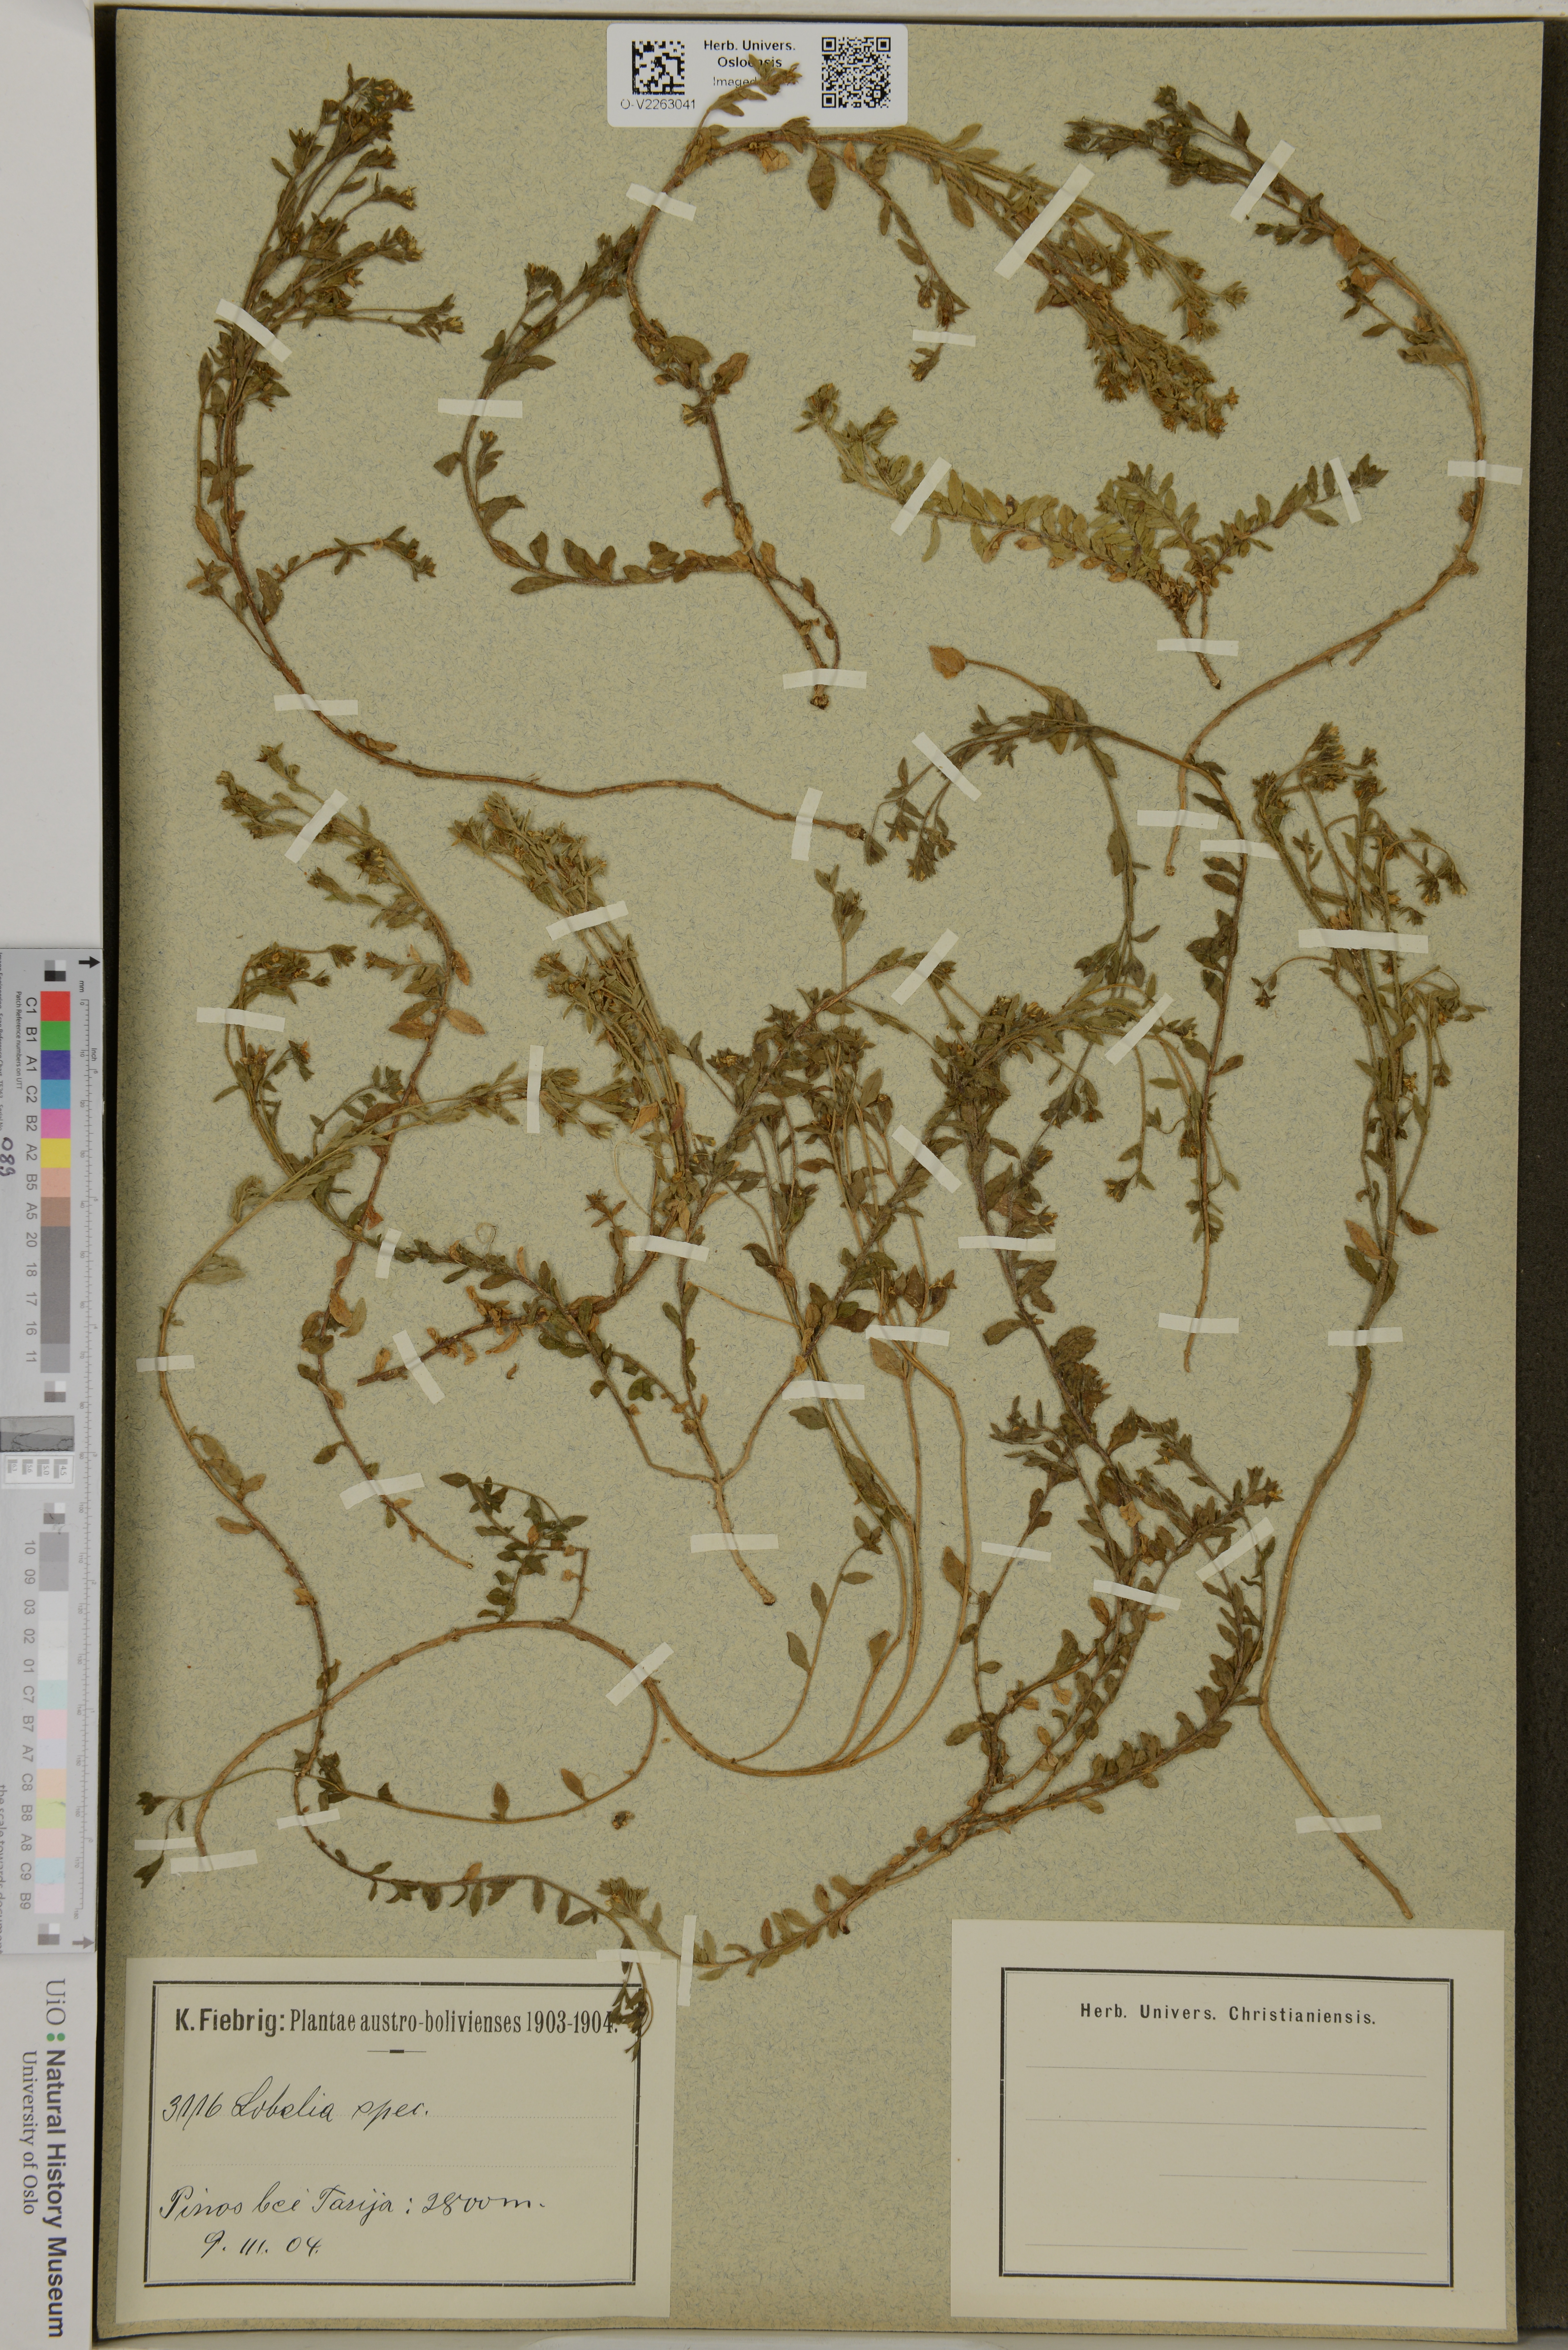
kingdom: Plantae
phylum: Tracheophyta
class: Magnoliopsida
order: Asterales
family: Campanulaceae
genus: Lobelia
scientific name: Lobelia
